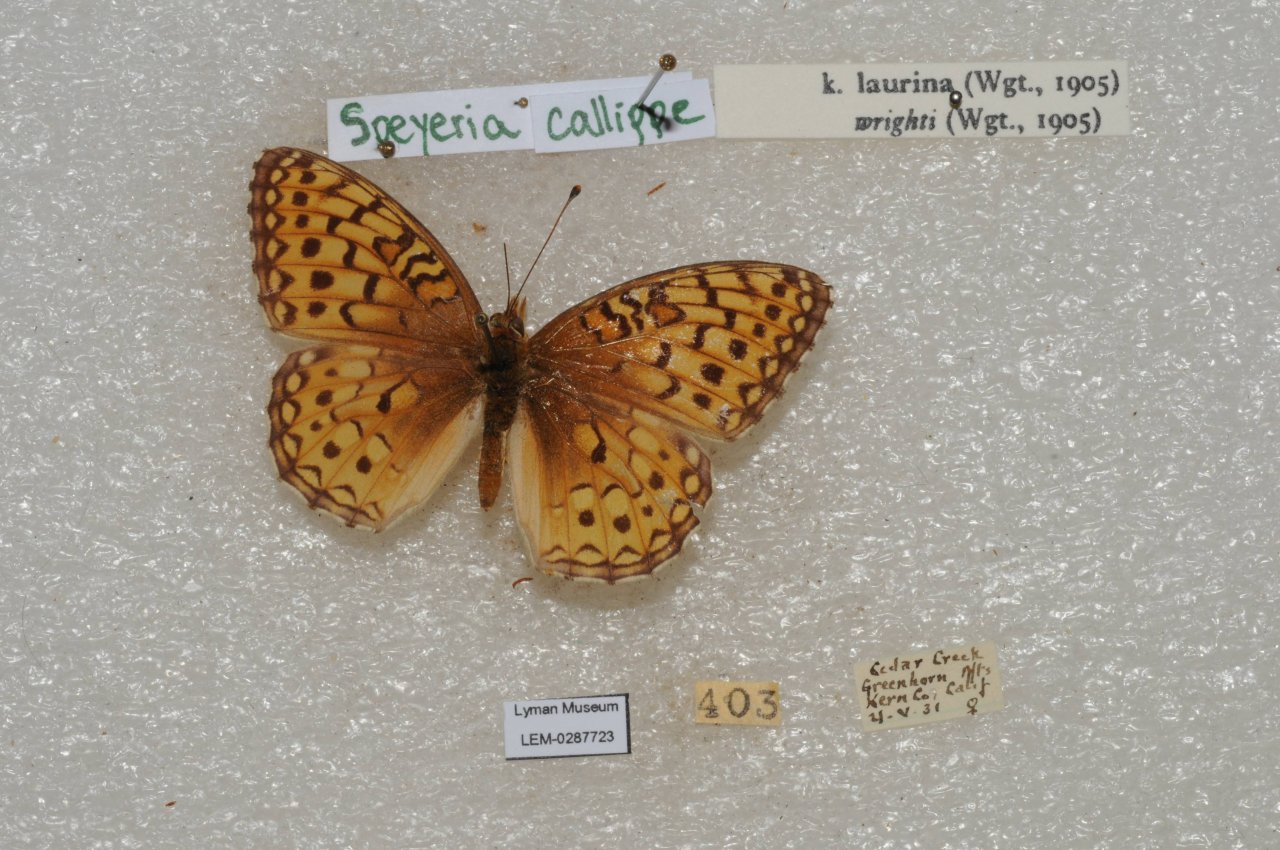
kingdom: Animalia
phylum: Arthropoda
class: Insecta
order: Lepidoptera
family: Nymphalidae
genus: Speyeria
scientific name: Speyeria callippe
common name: Callippe Fritillary
